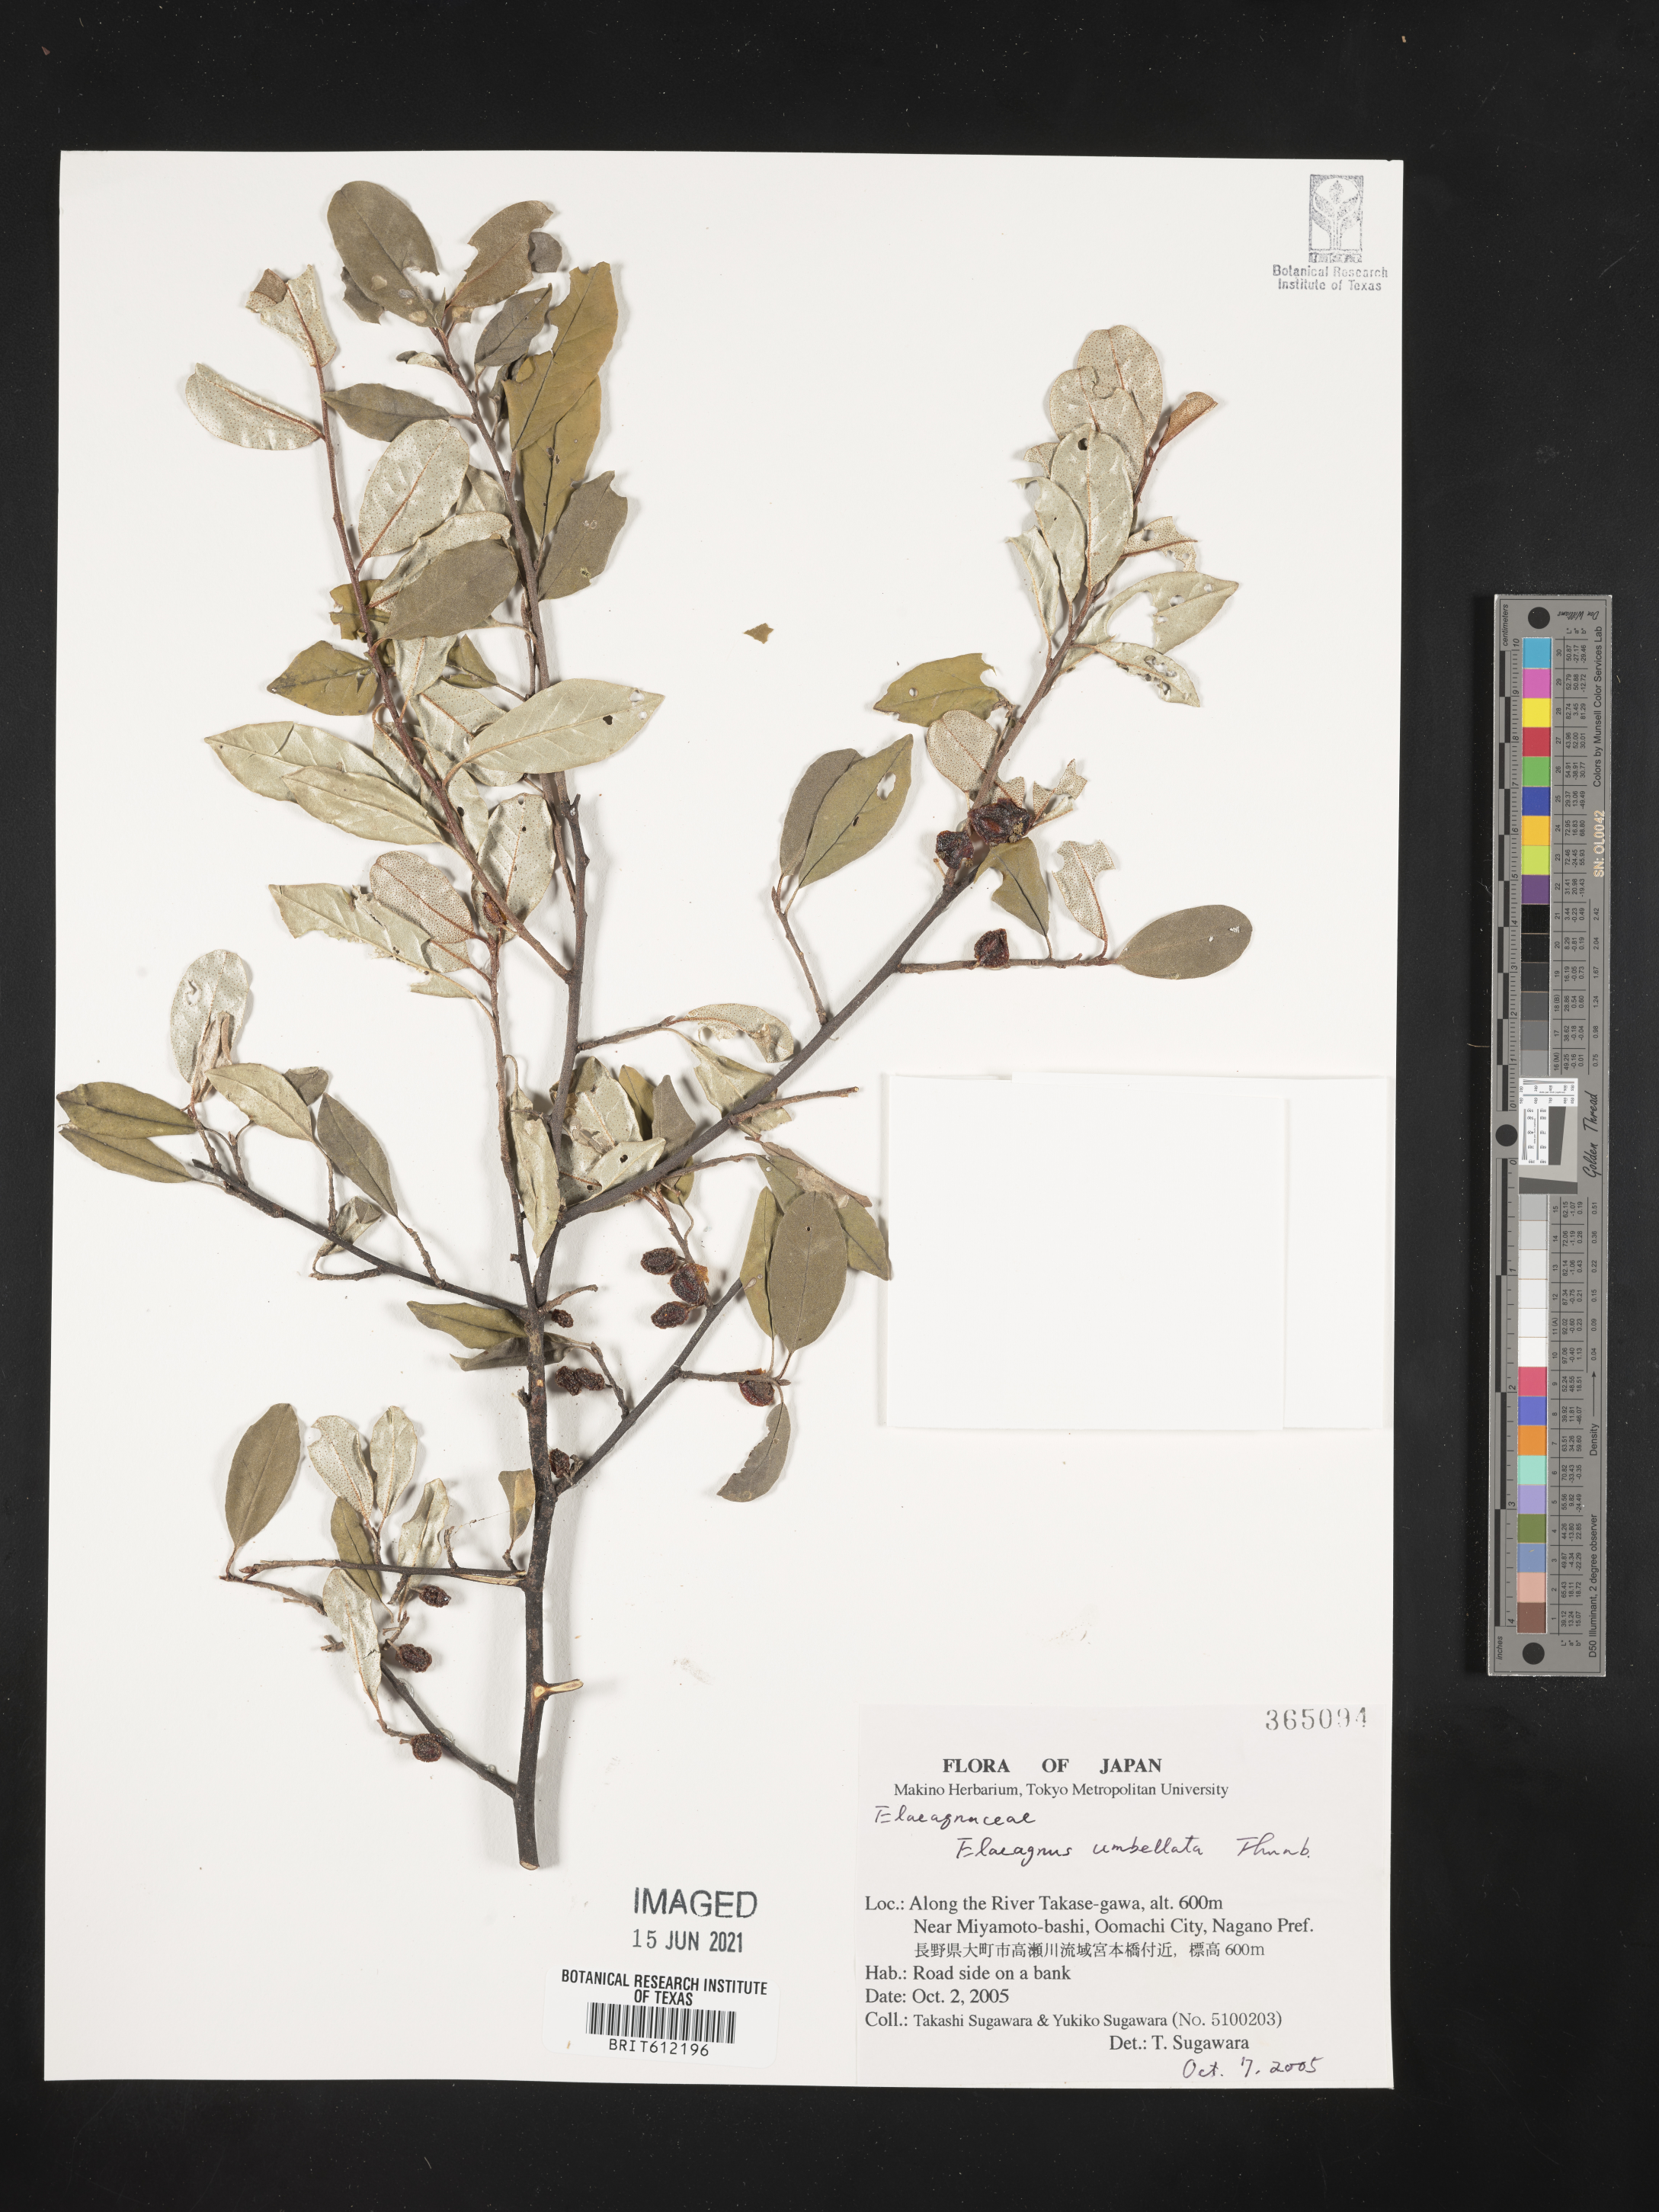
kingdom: Plantae
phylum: Tracheophyta
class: Magnoliopsida
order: Rosales
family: Elaeagnaceae
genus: Elaeagnus
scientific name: Elaeagnus umbellata
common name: Autumn olive
